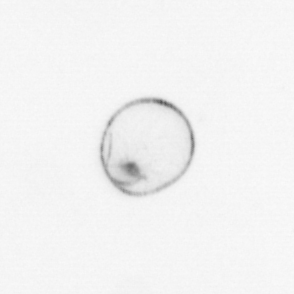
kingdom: Chromista
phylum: Myzozoa
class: Dinophyceae
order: Noctilucales
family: Noctilucaceae
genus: Noctiluca
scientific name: Noctiluca scintillans
